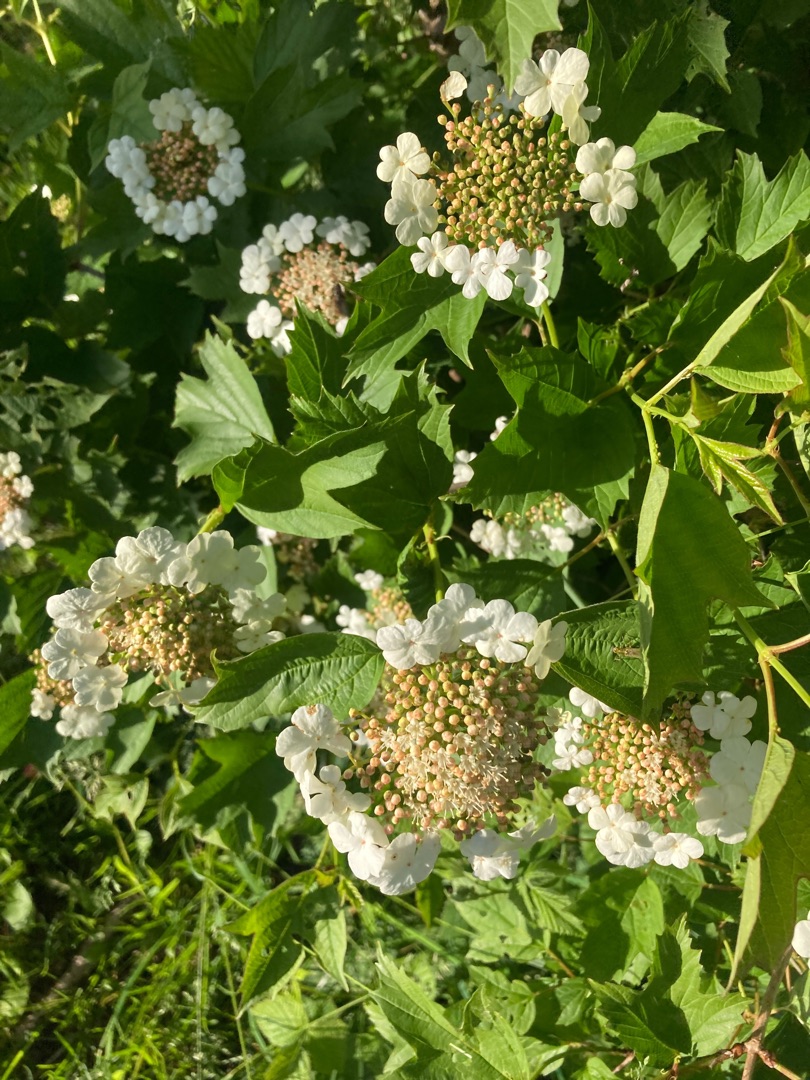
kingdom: Plantae
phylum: Tracheophyta
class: Magnoliopsida
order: Dipsacales
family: Viburnaceae
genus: Viburnum
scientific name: Viburnum opulus
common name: Kvalkved
